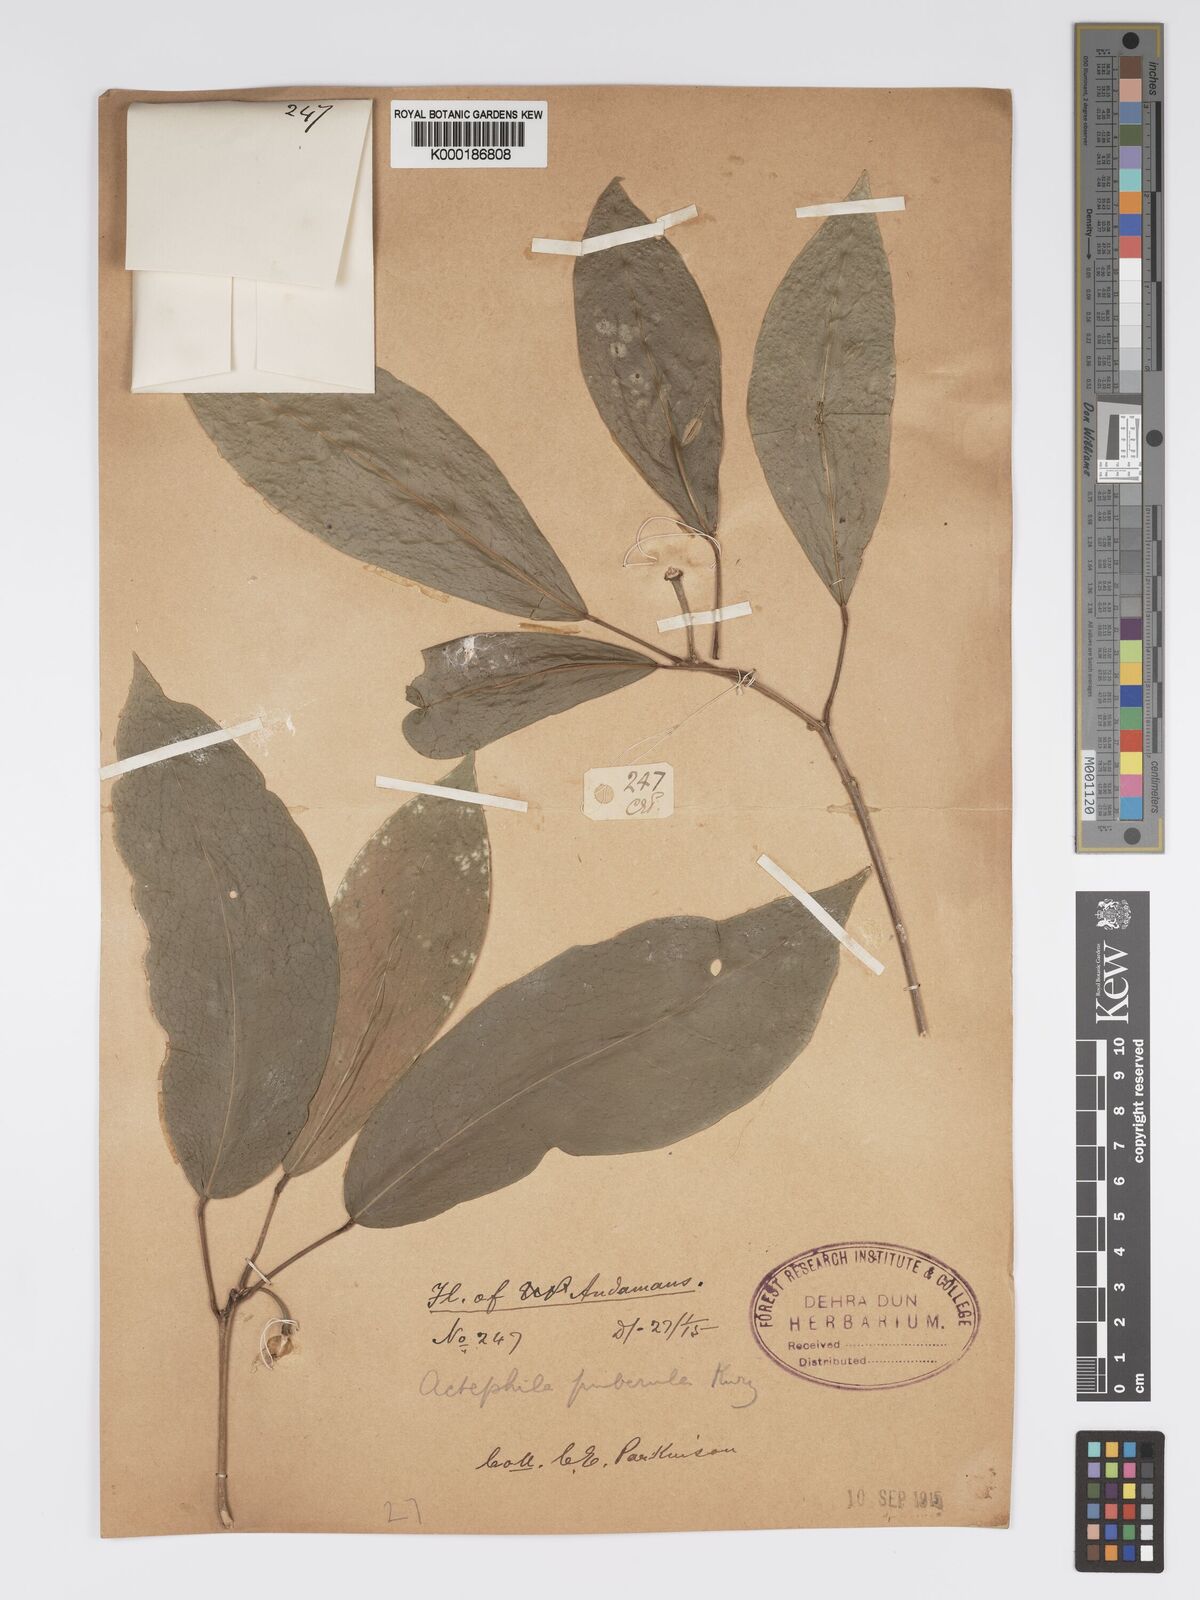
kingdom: Plantae
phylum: Tracheophyta
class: Magnoliopsida
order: Malpighiales
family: Phyllanthaceae
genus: Actephila
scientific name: Actephila excelsa
